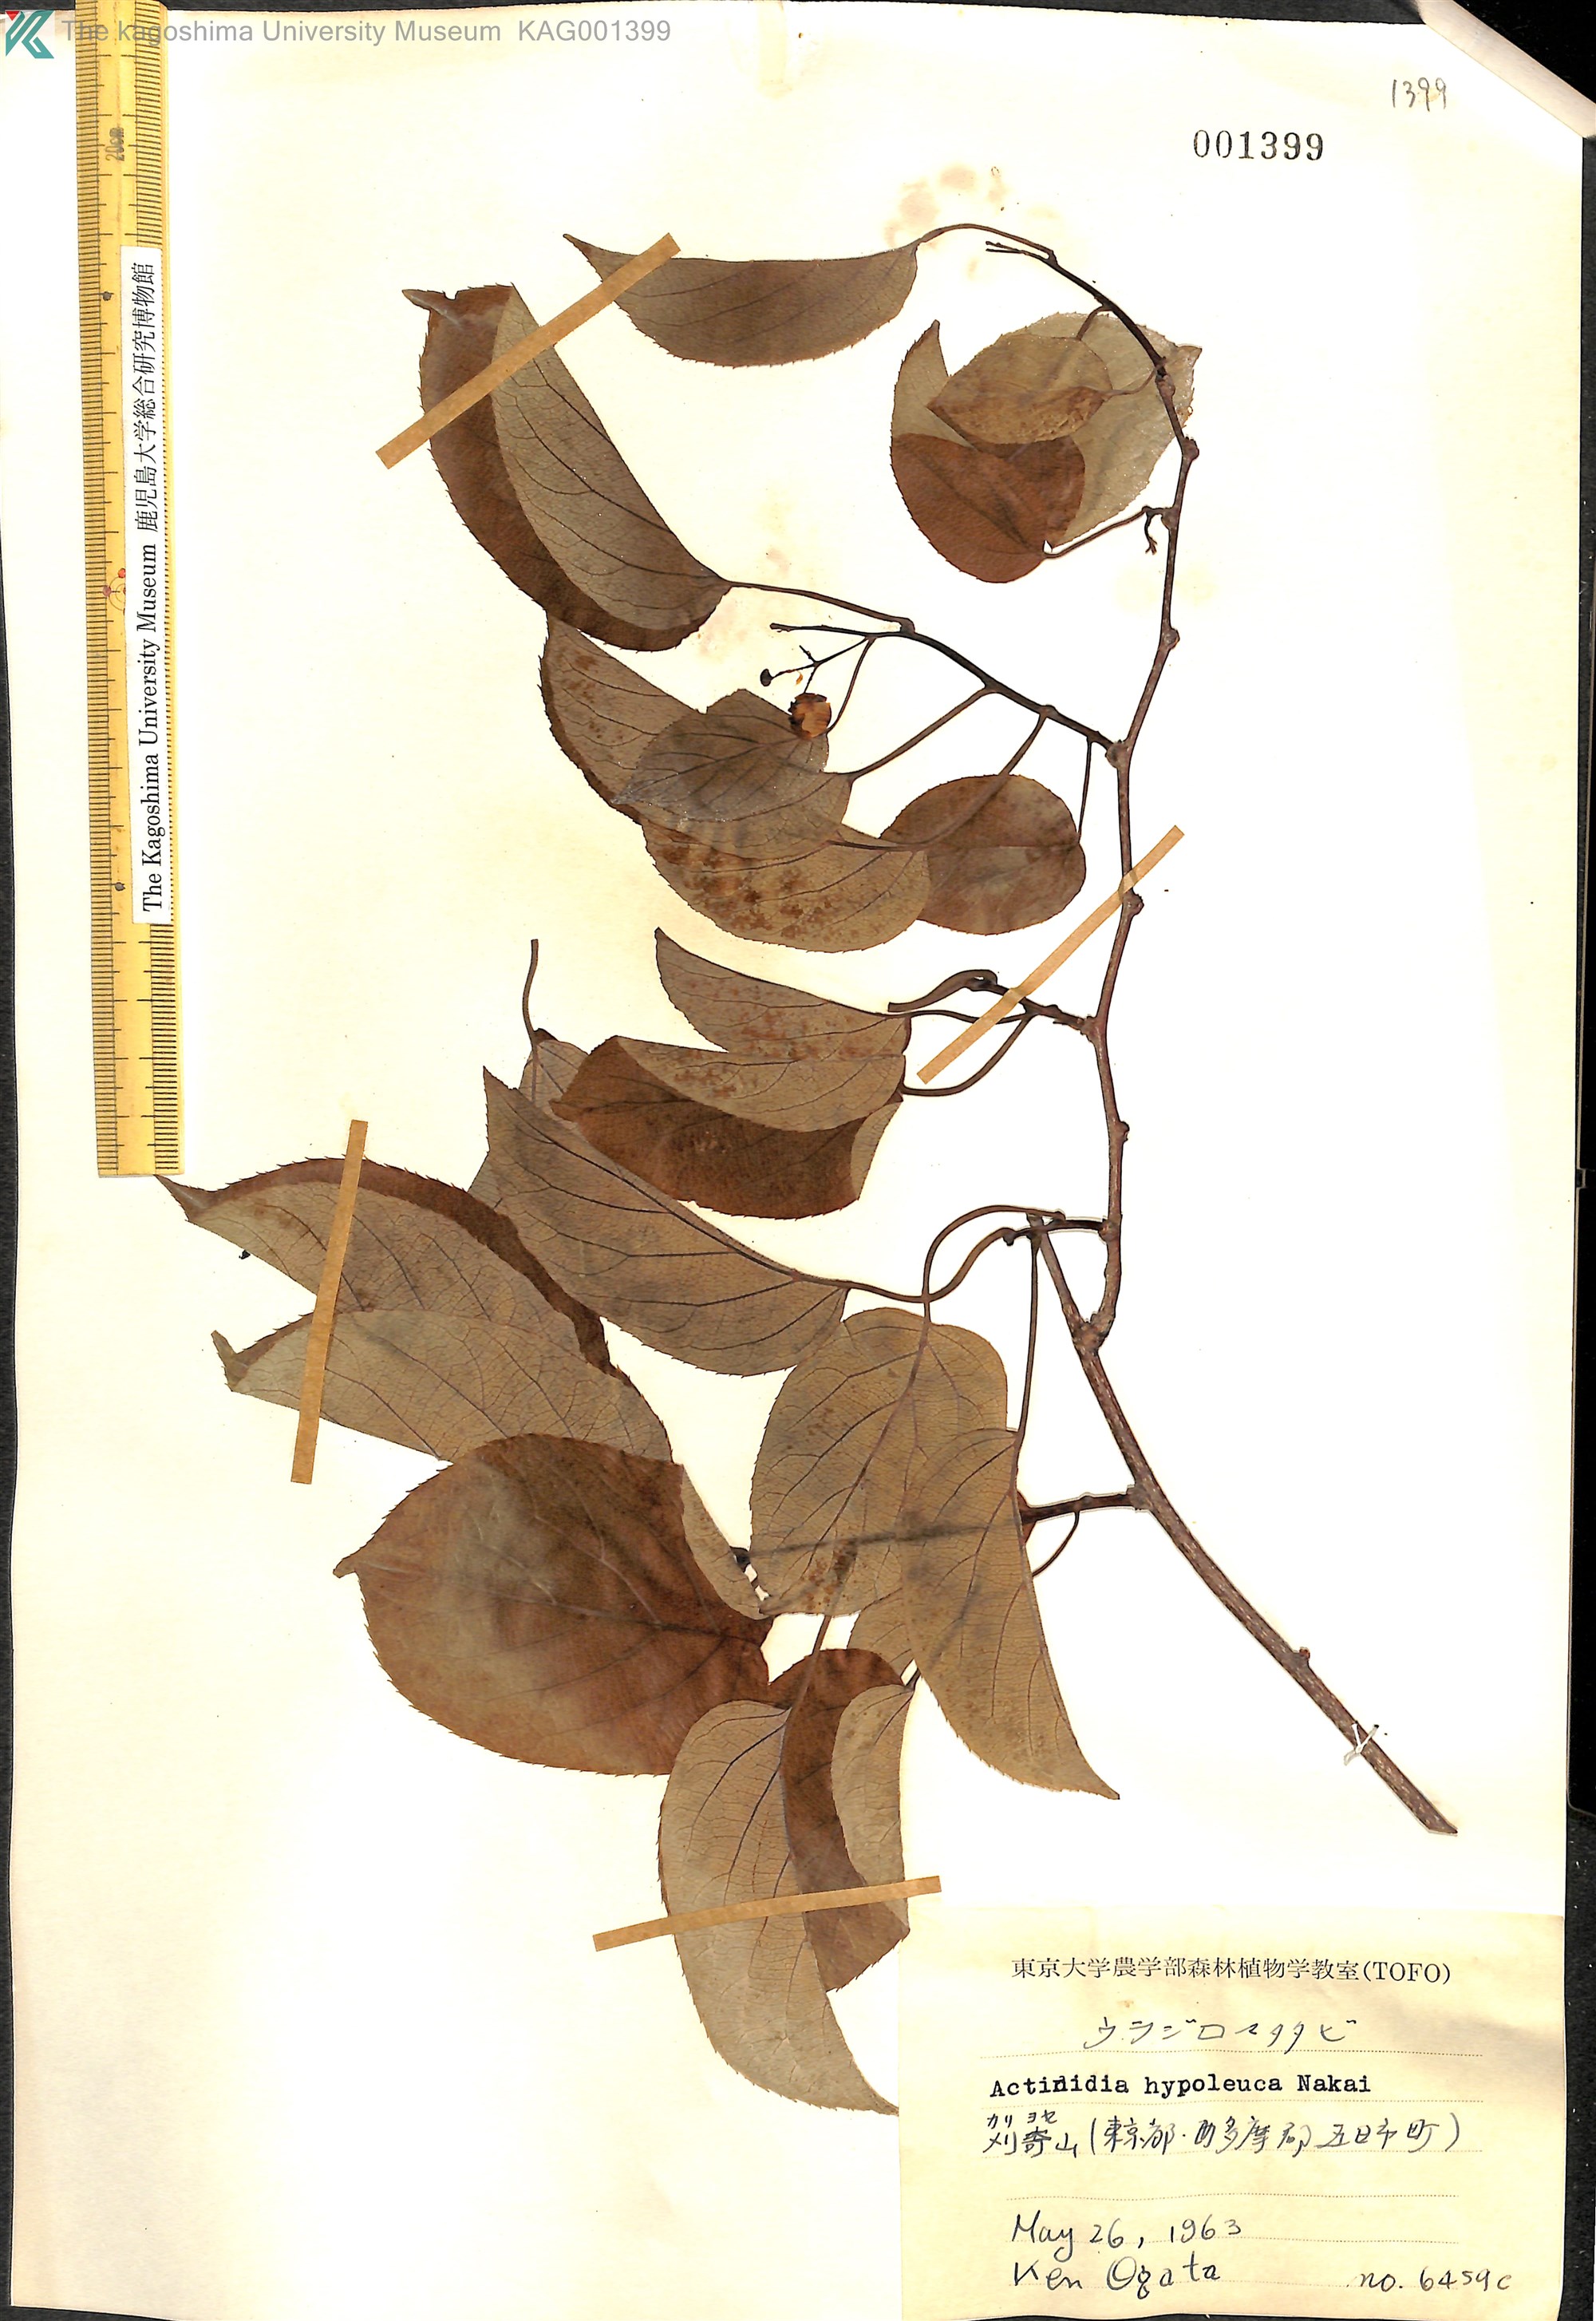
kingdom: Plantae
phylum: Tracheophyta
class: Magnoliopsida
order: Ericales
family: Actinidiaceae
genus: Actinidia
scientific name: Actinidia arguta
